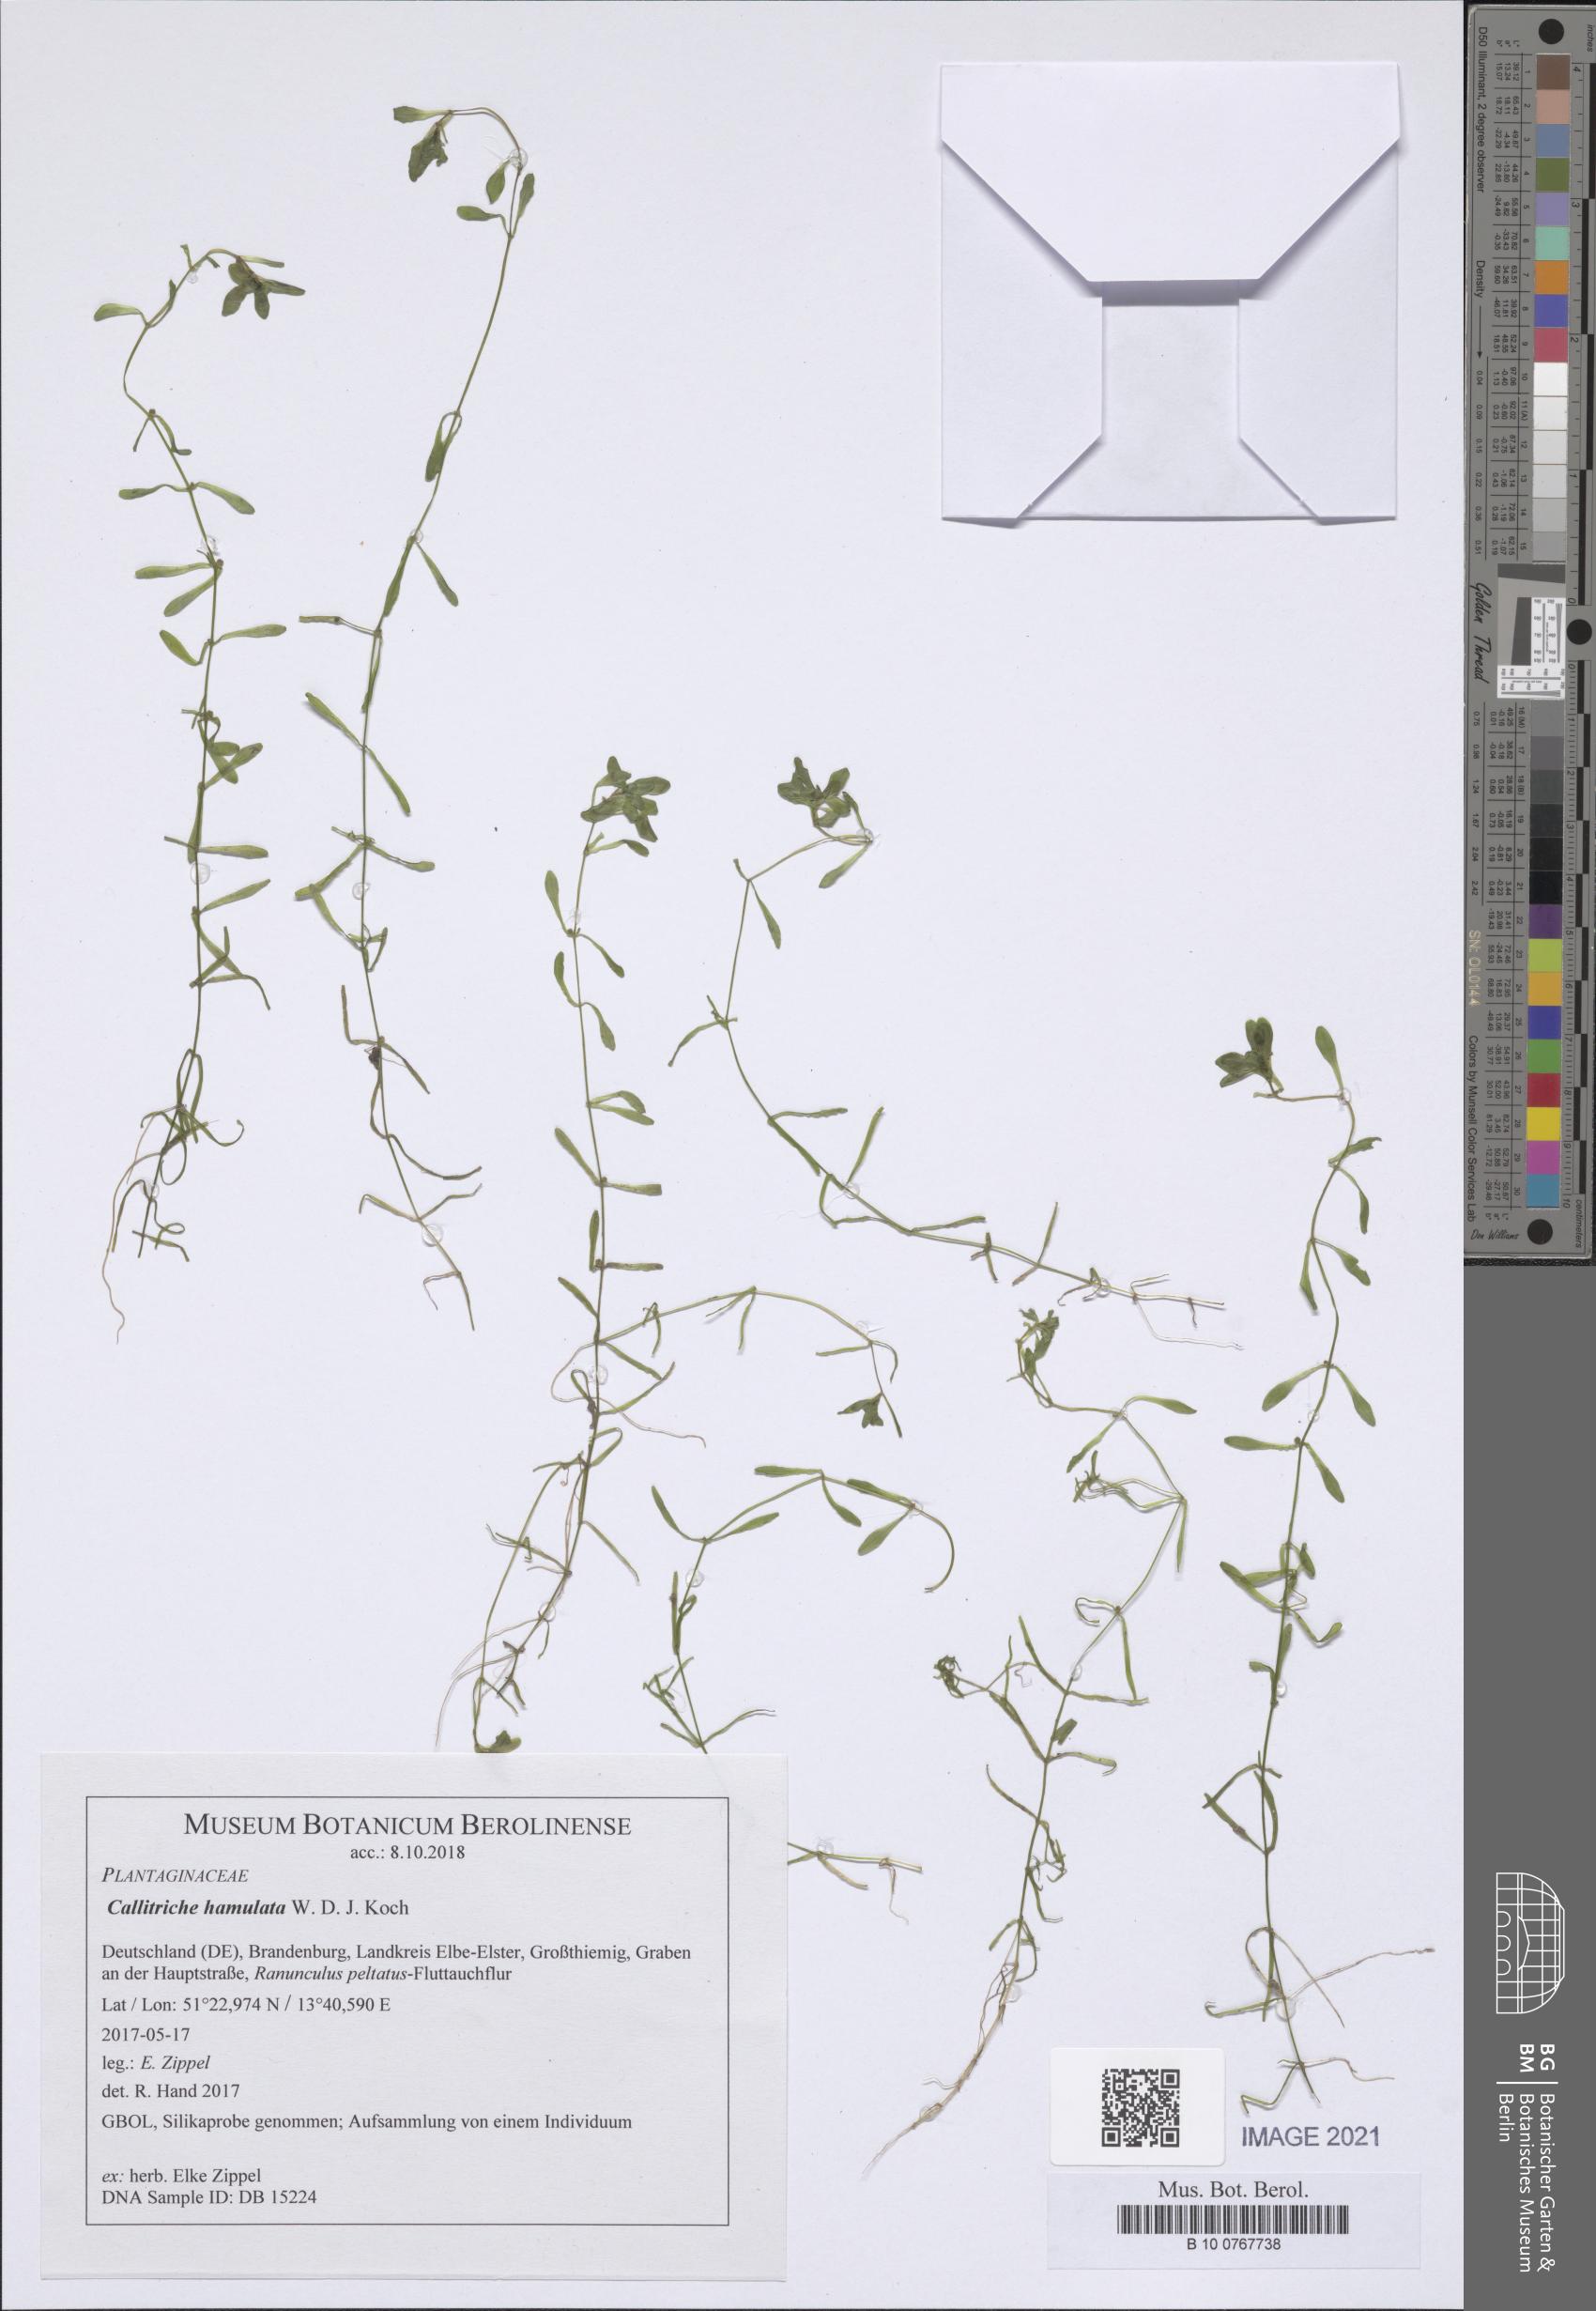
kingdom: Plantae
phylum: Tracheophyta
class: Magnoliopsida
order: Lamiales
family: Plantaginaceae
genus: Callitriche
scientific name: Callitriche hamulata
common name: Intermediate water-starwort
